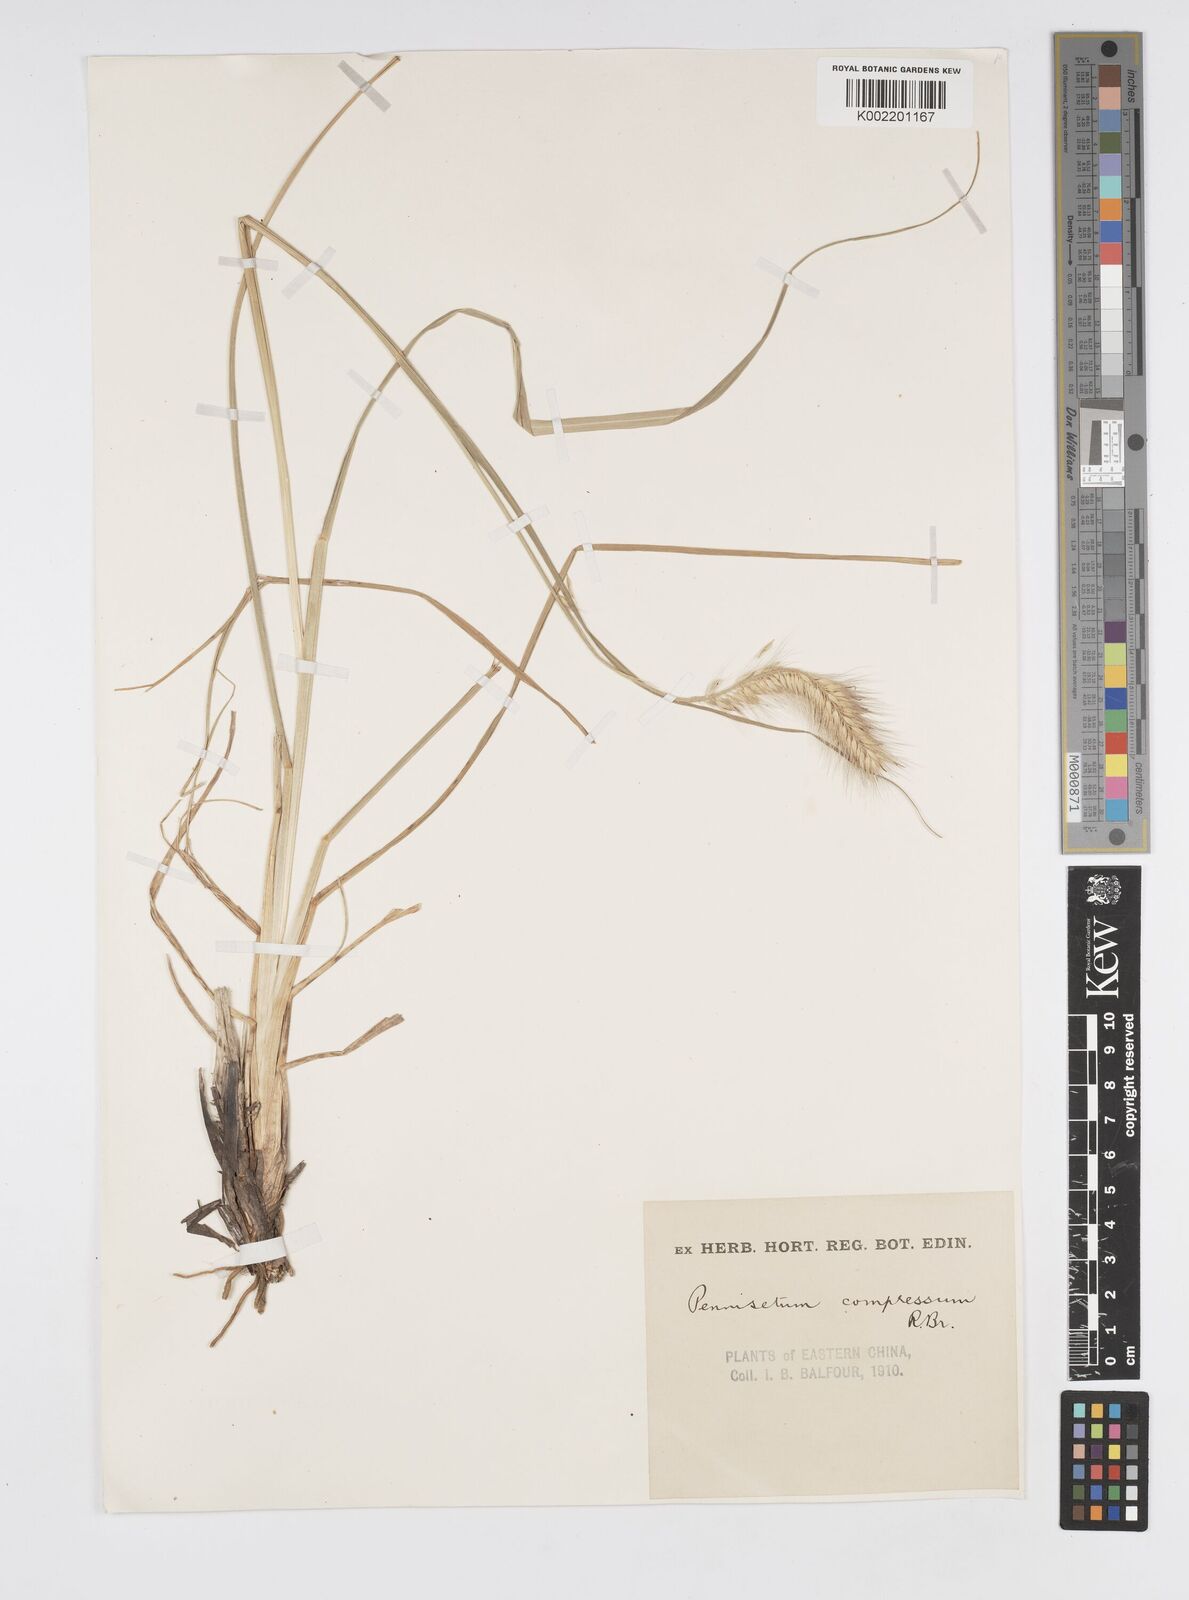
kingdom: Plantae
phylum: Tracheophyta
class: Liliopsida
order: Poales
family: Poaceae
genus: Cenchrus
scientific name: Cenchrus alopecuroides
